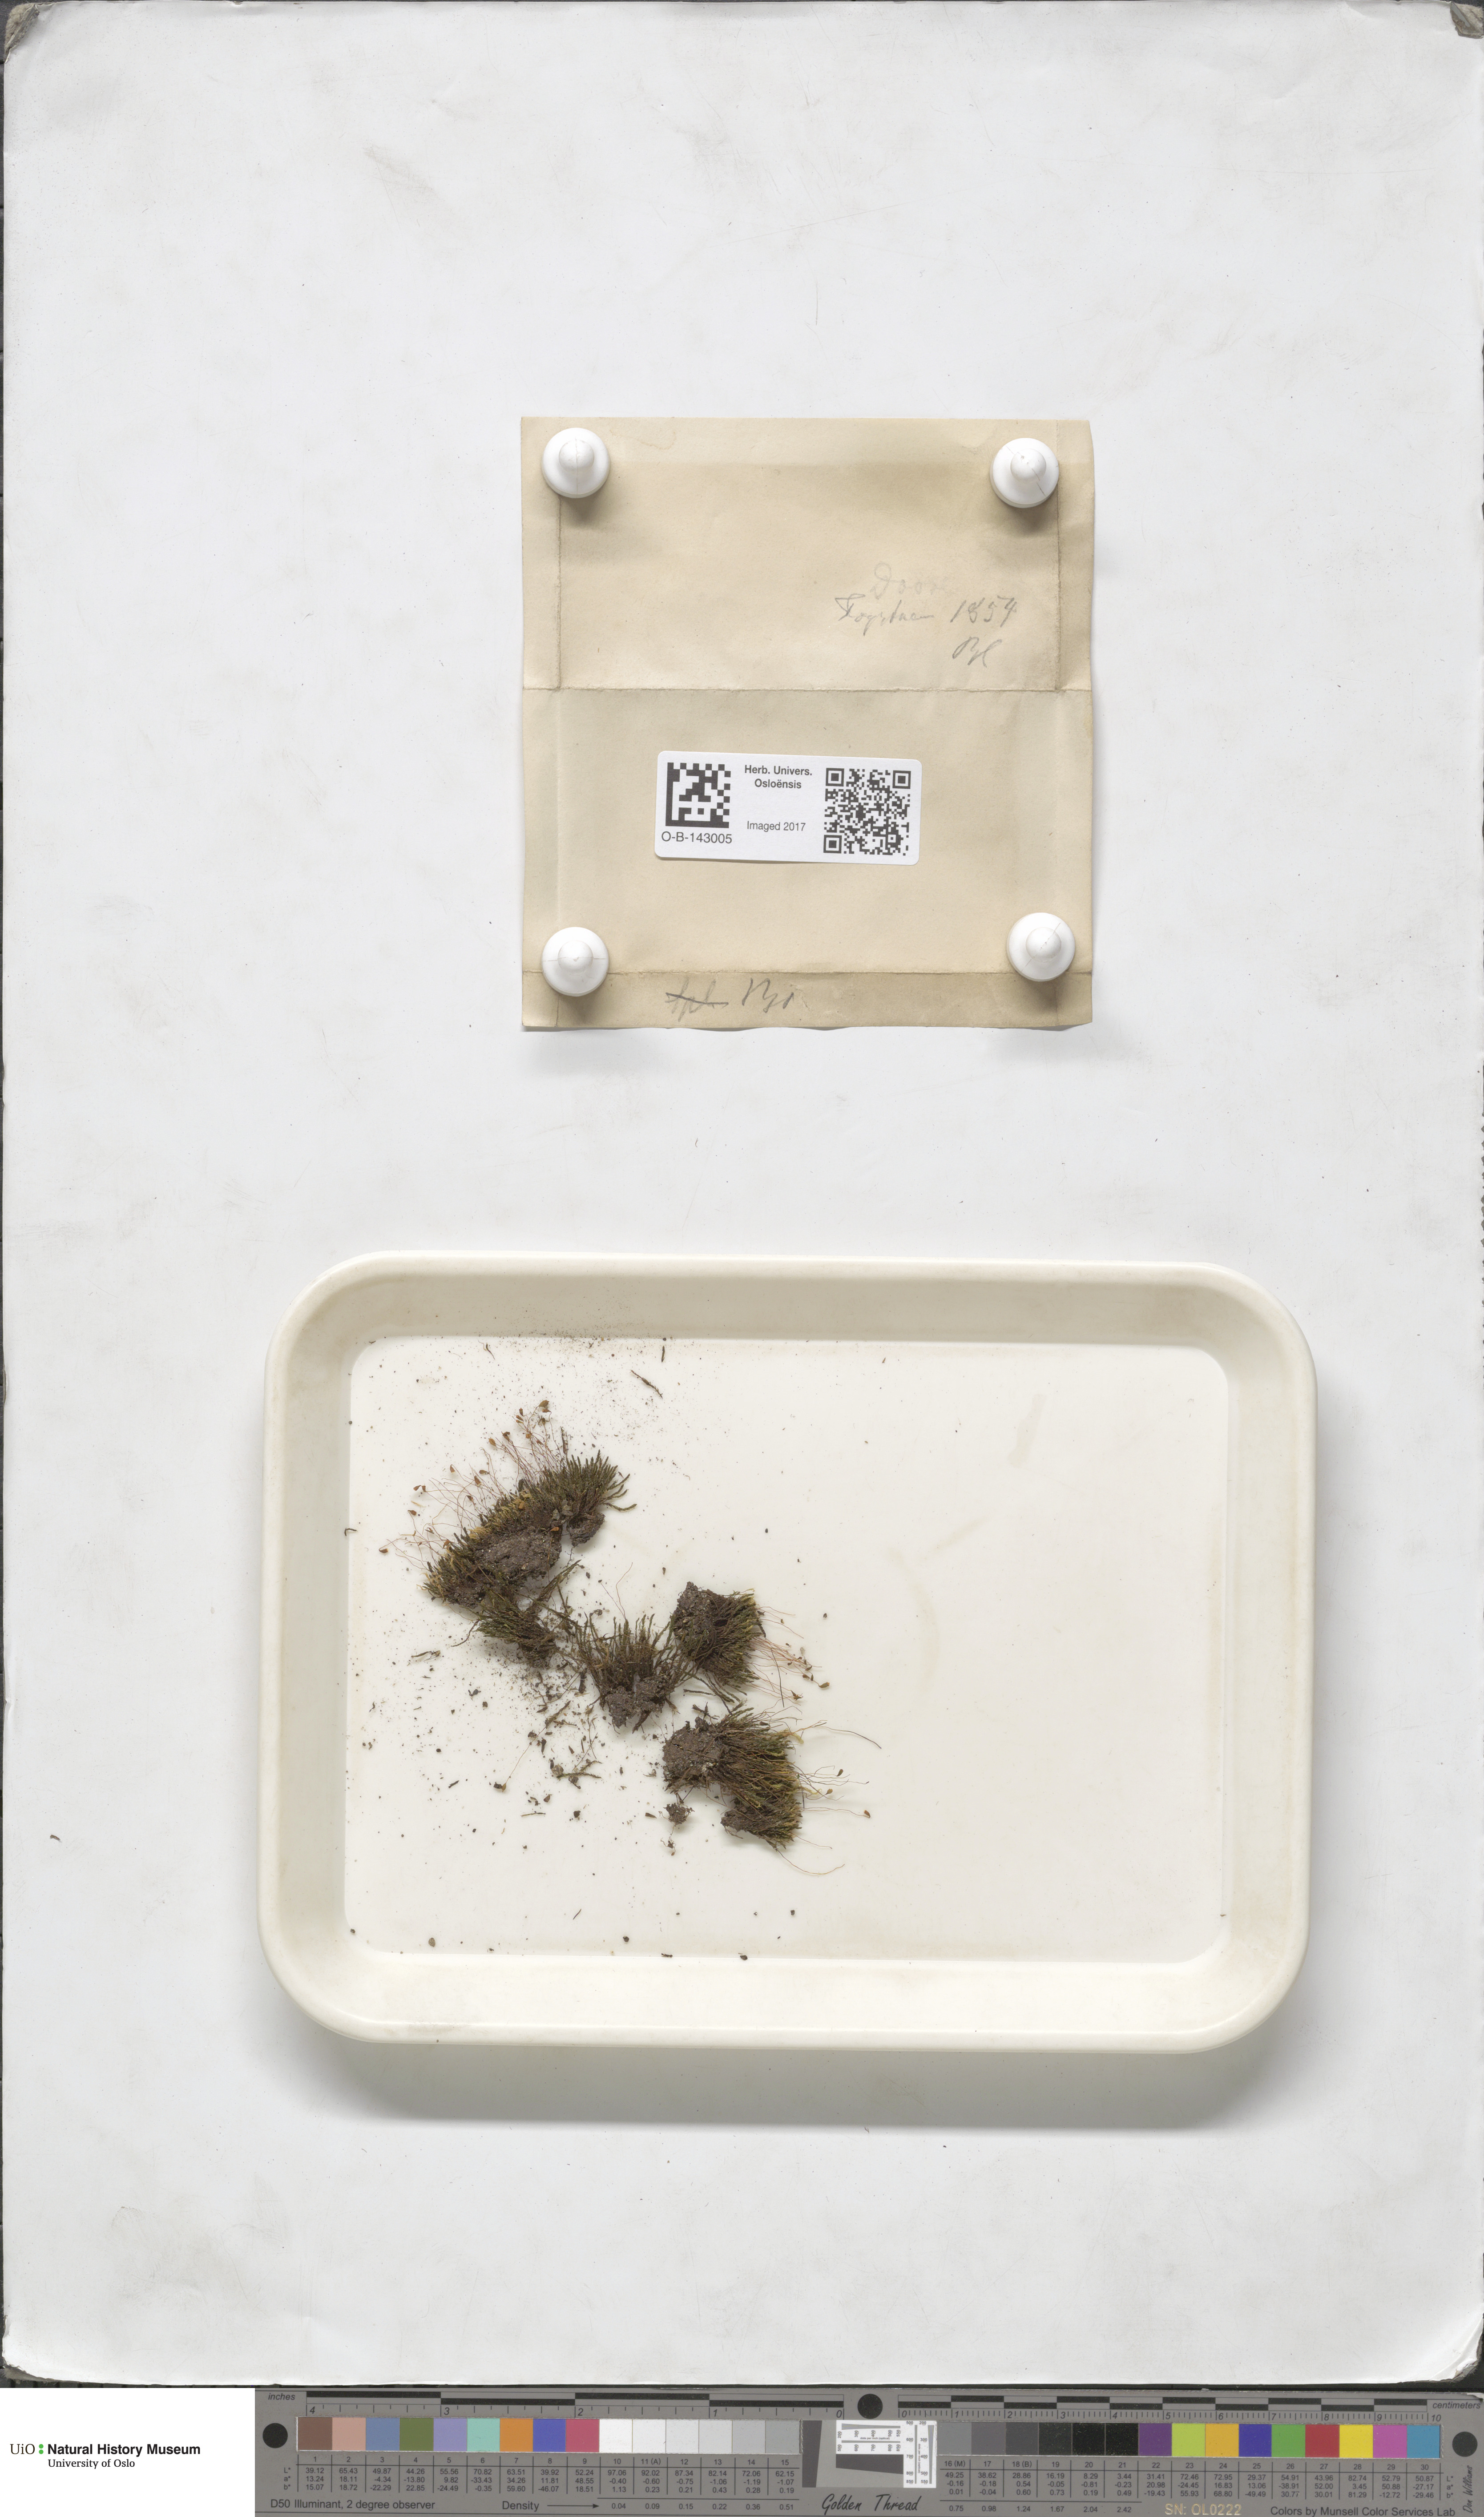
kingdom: Plantae
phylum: Bryophyta
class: Bryopsida
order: Bryales
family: Bryaceae
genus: Bryum
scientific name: Bryum
